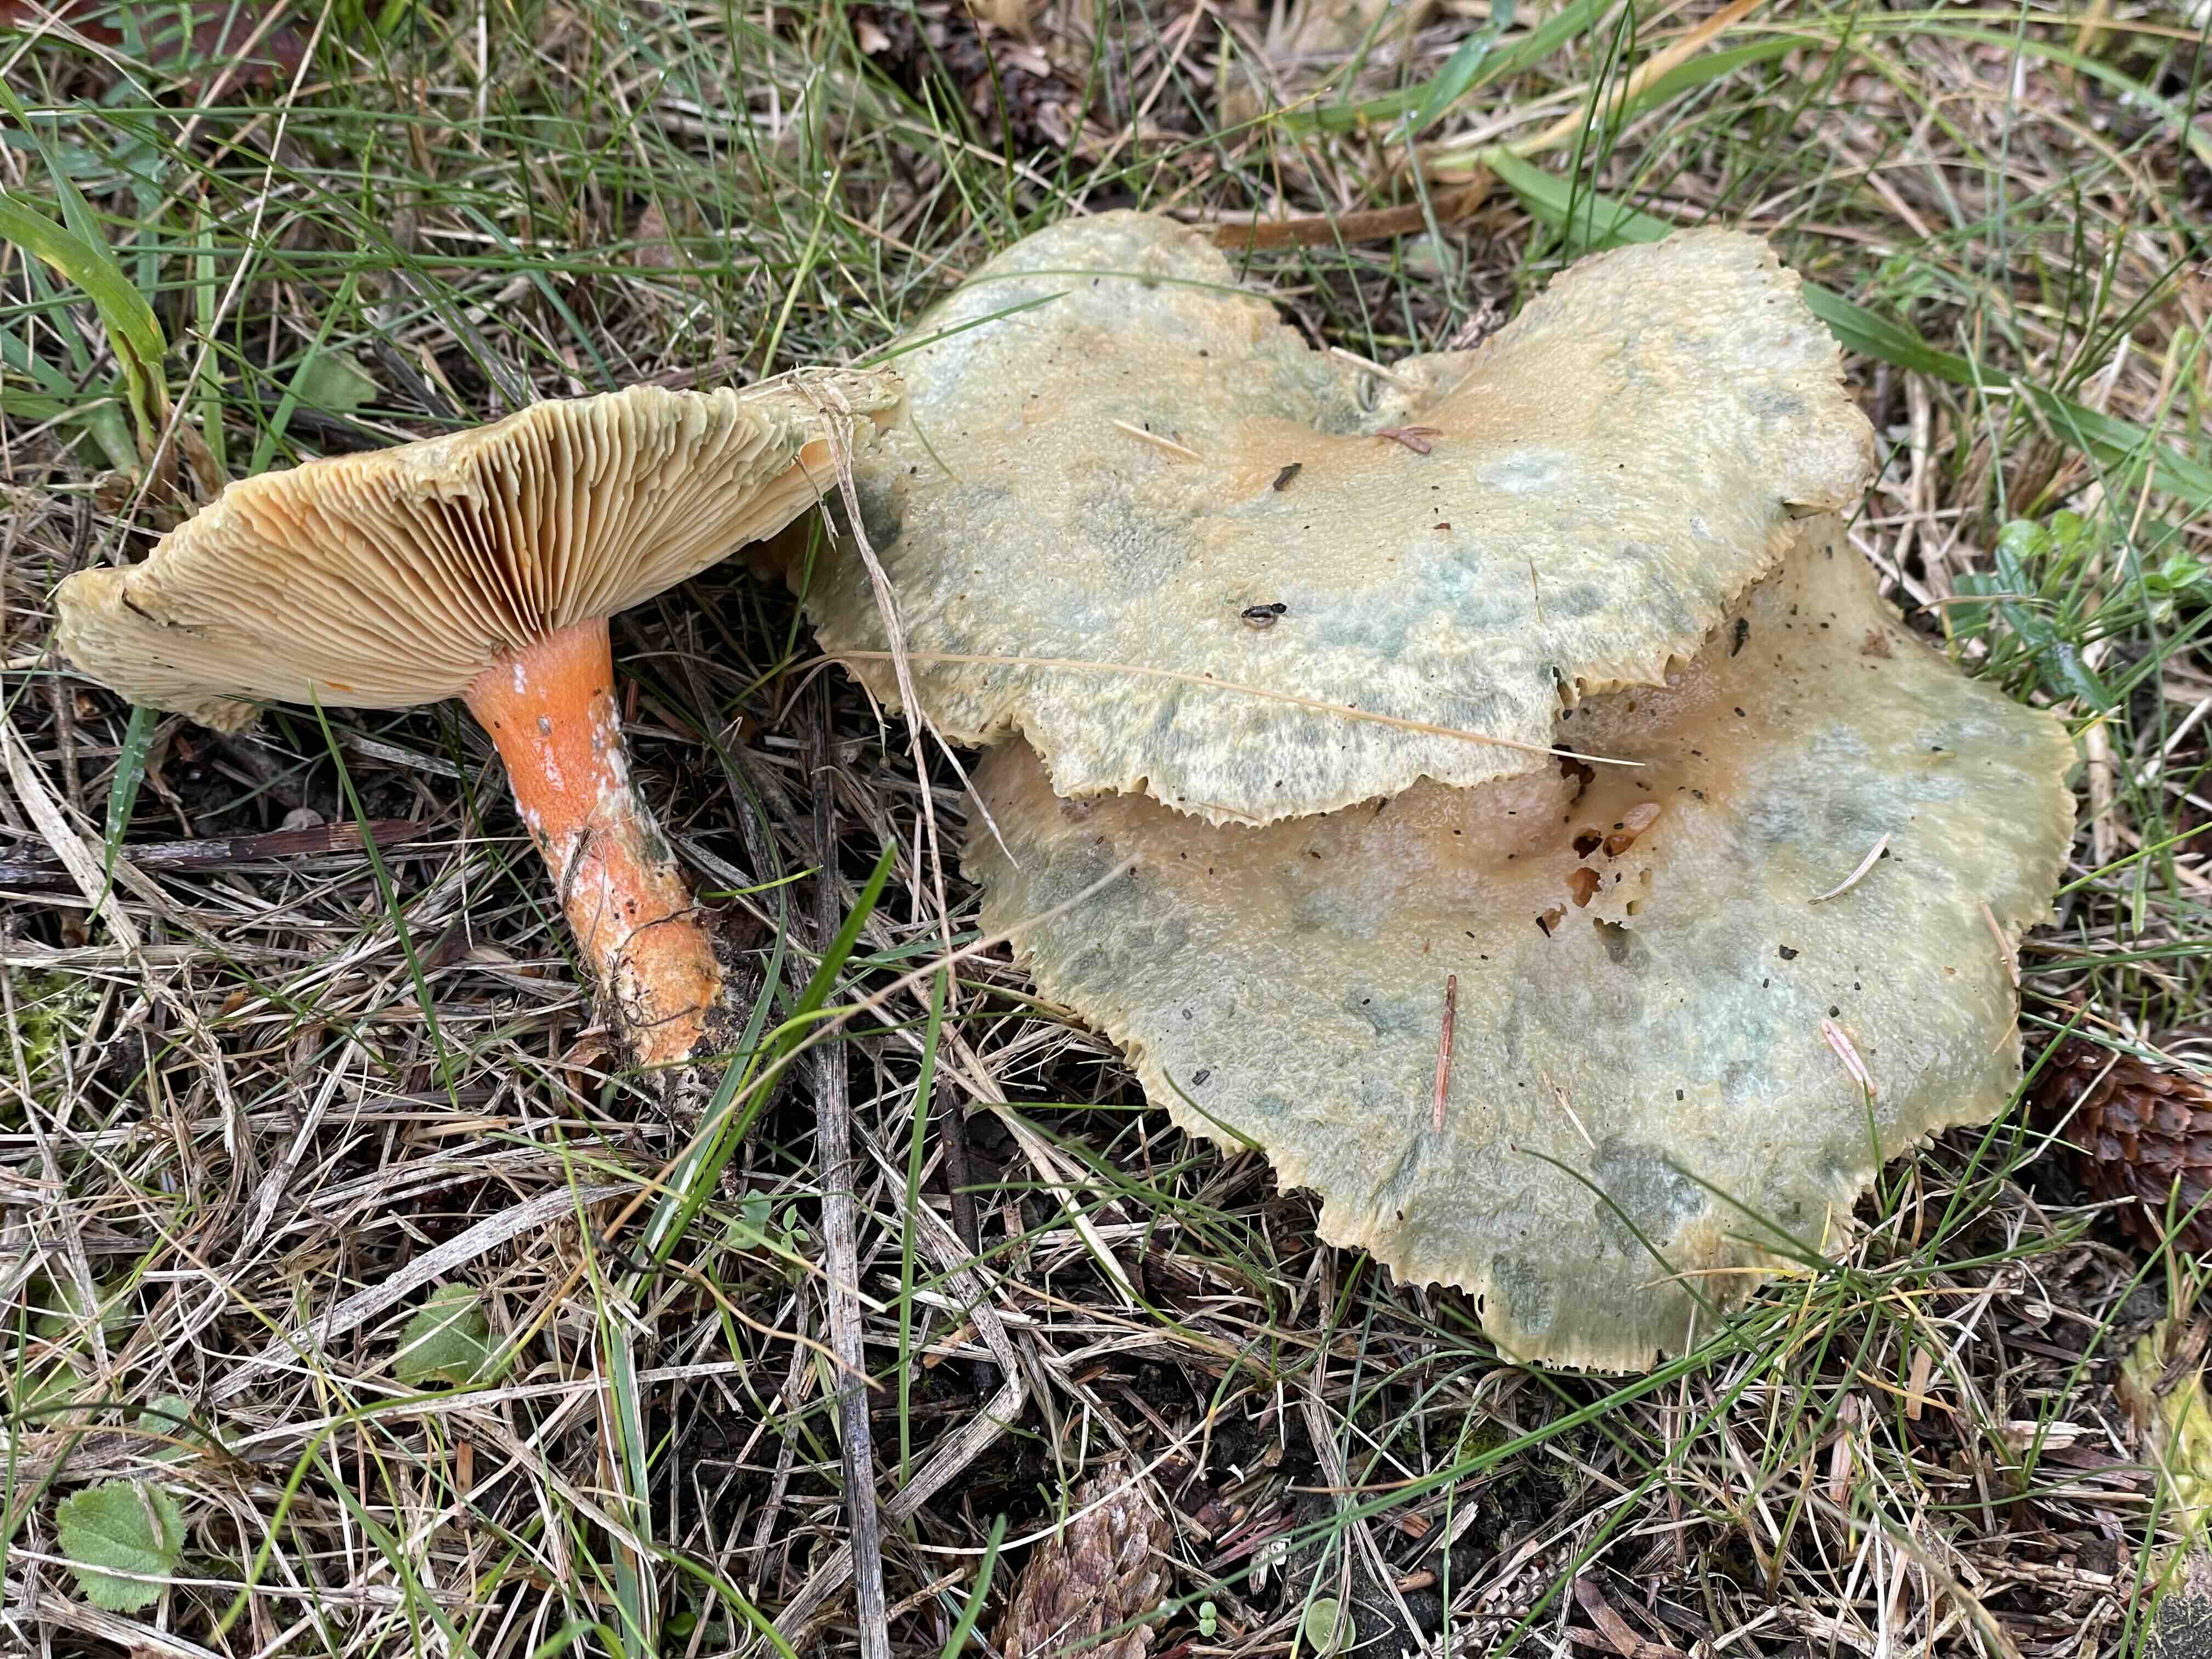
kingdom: Fungi
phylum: Basidiomycota
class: Agaricomycetes
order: Russulales
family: Russulaceae
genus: Lactarius
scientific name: Lactarius deterrimus
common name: gran-mælkehat
